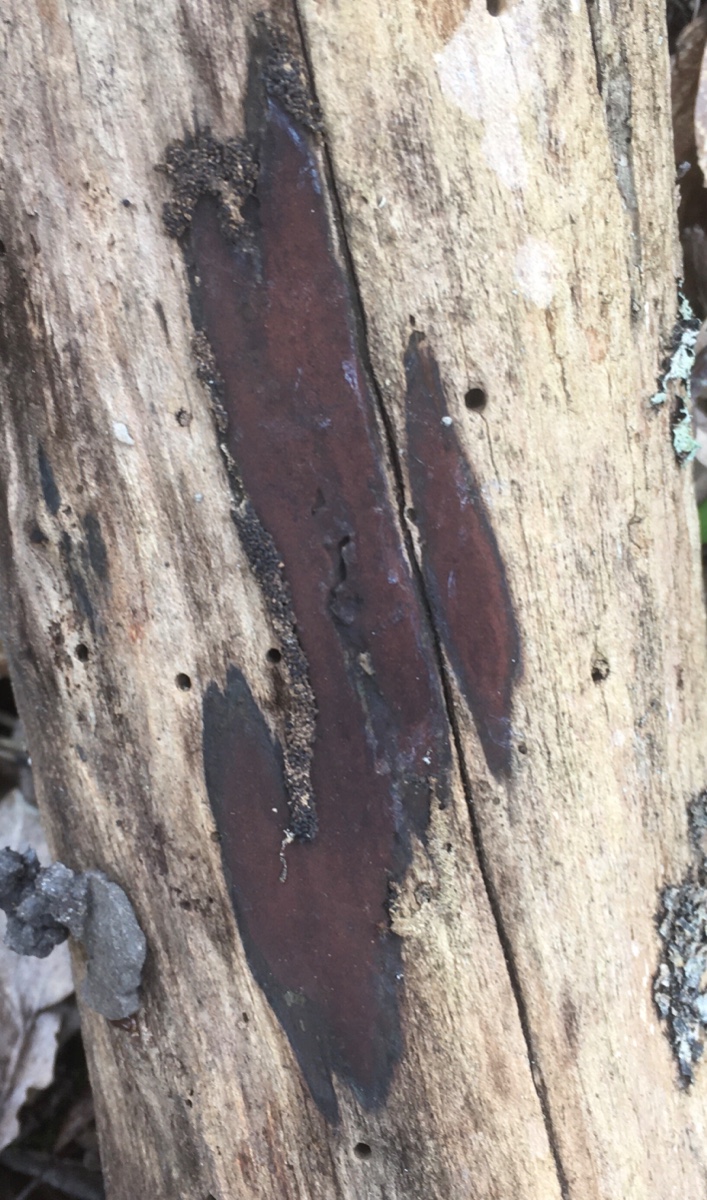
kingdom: Fungi
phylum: Ascomycota
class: Sordariomycetes
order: Xylariales
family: Hypoxylaceae
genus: Hypoxylon
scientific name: Hypoxylon macrocarpum
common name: skorpe-kulbær
